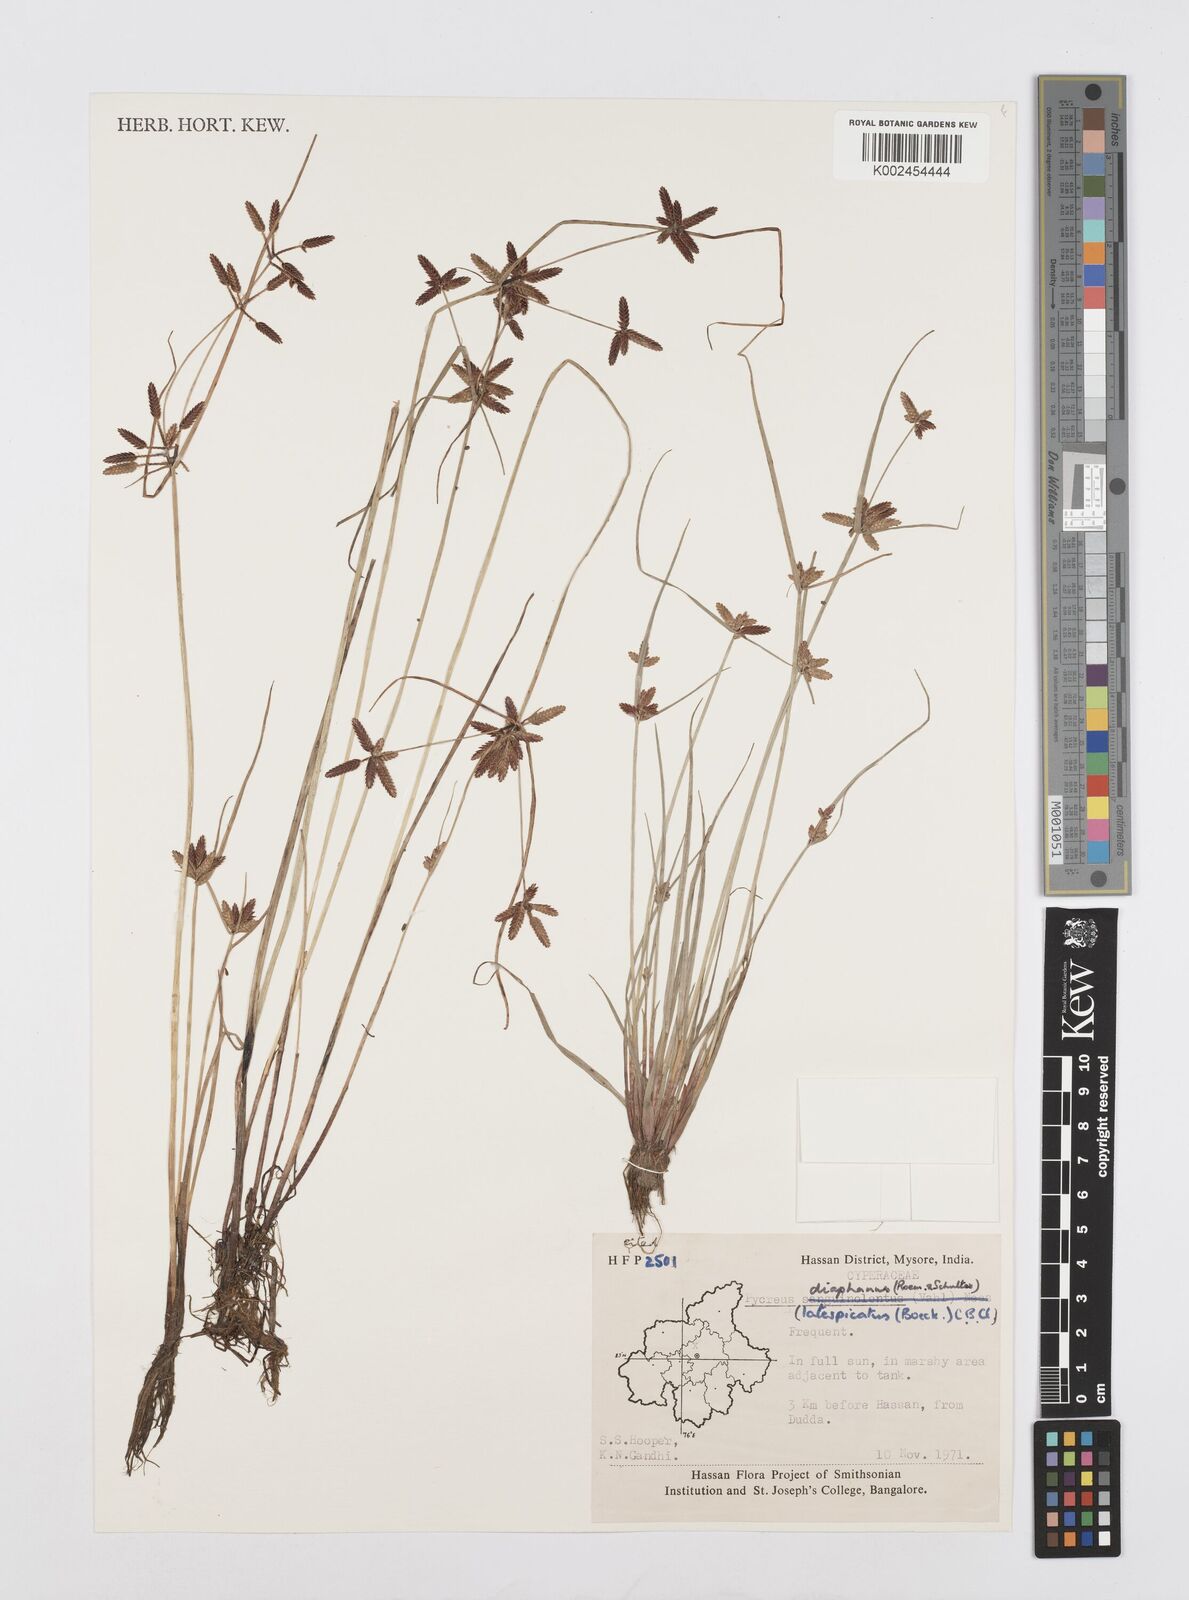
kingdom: Plantae
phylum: Tracheophyta
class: Liliopsida
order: Poales
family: Cyperaceae
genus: Cyperus
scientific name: Cyperus
